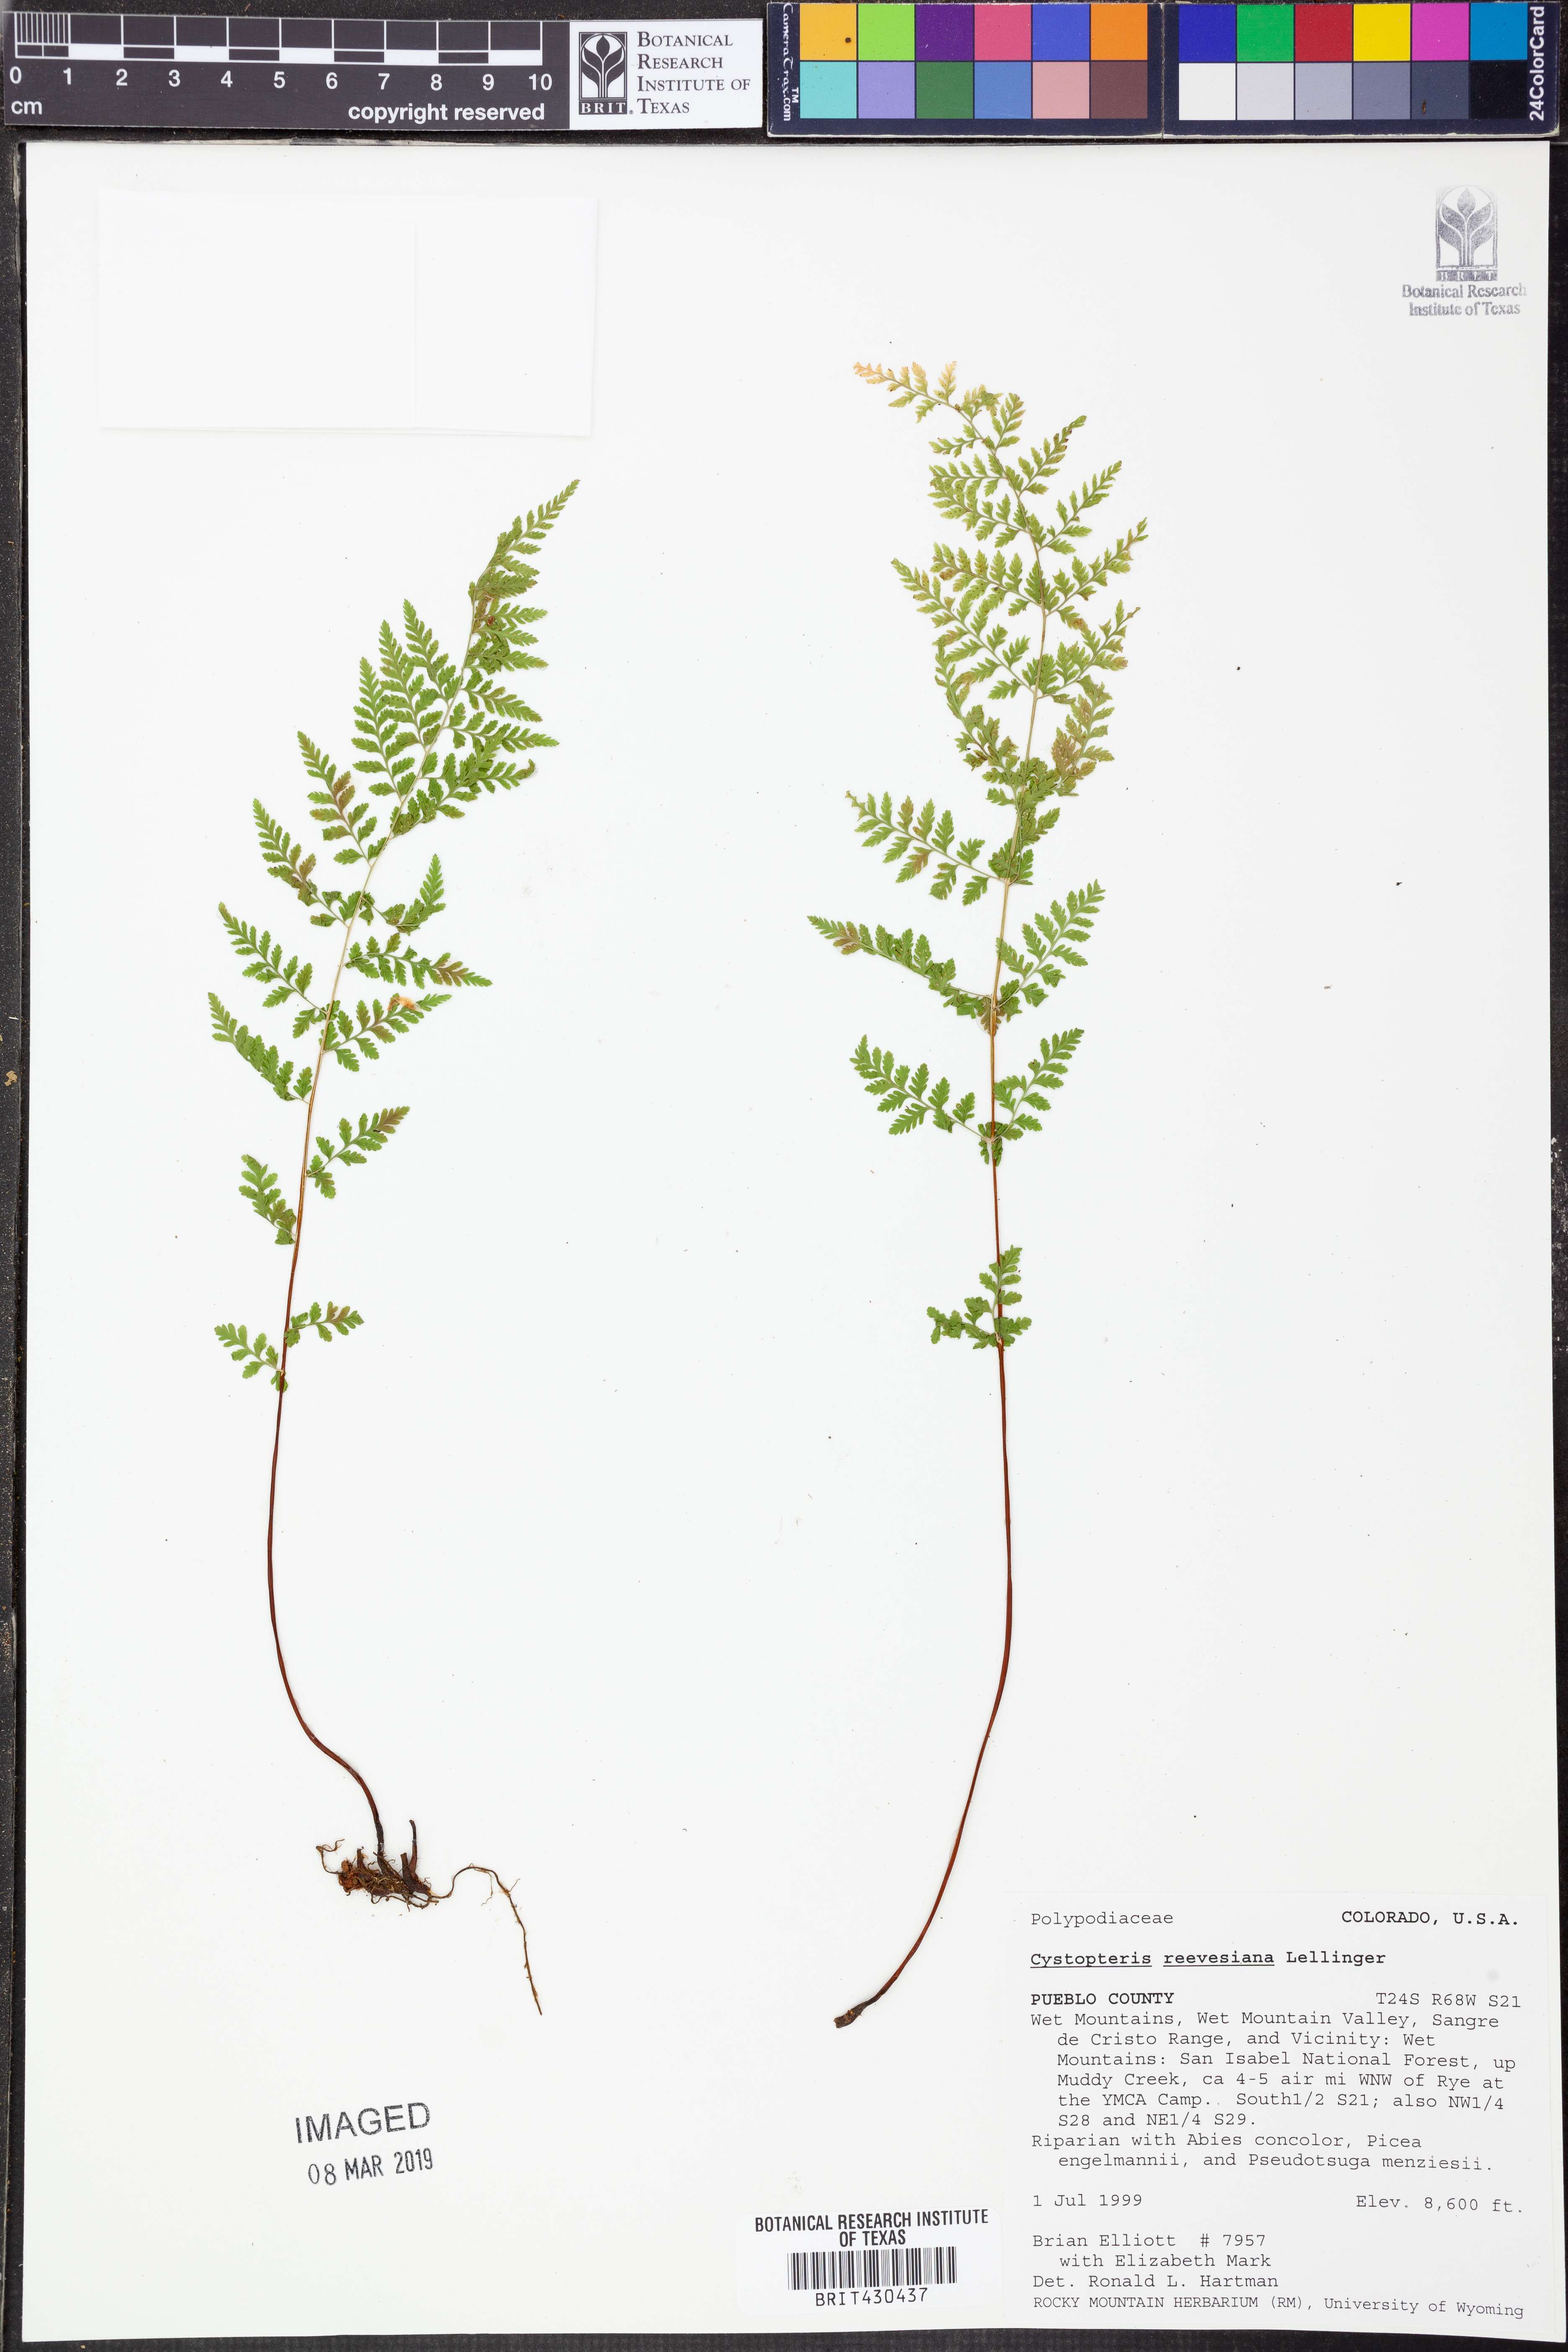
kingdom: Plantae
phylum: Tracheophyta
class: Polypodiopsida
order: Polypodiales
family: Cystopteridaceae
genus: Cystopteris
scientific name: Cystopteris reevesiana
